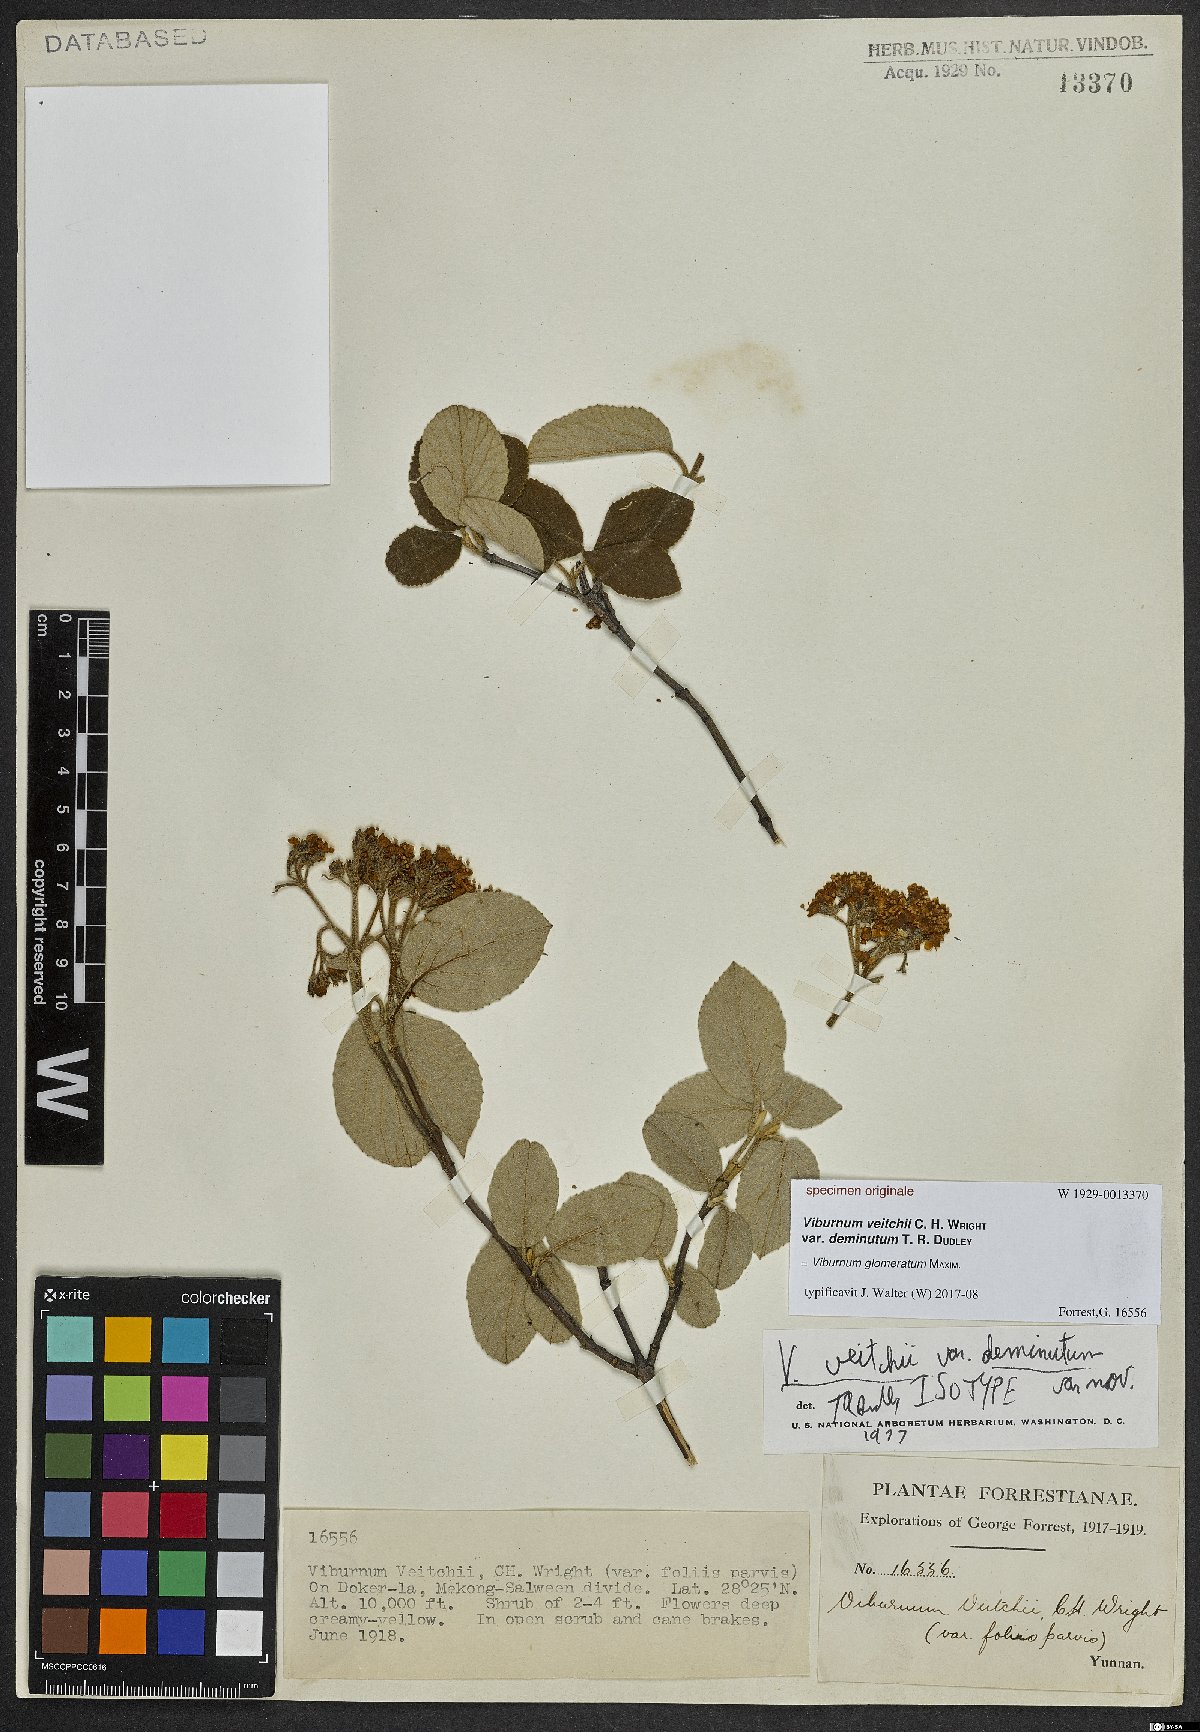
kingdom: Plantae
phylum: Tracheophyta
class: Magnoliopsida
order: Dipsacales
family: Viburnaceae
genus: Viburnum
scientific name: Viburnum glomeratum
